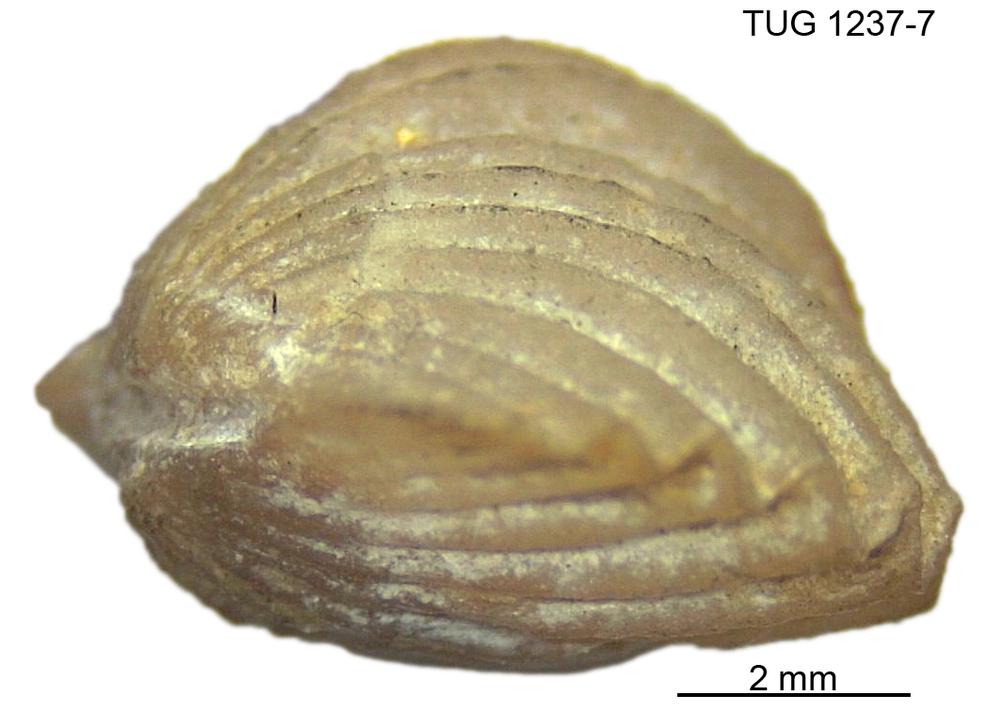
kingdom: Animalia
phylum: Brachiopoda
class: Rhynchonellata
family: Platystrophiidae
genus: Neoplatystrophia
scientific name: Neoplatystrophia saxbyensis
